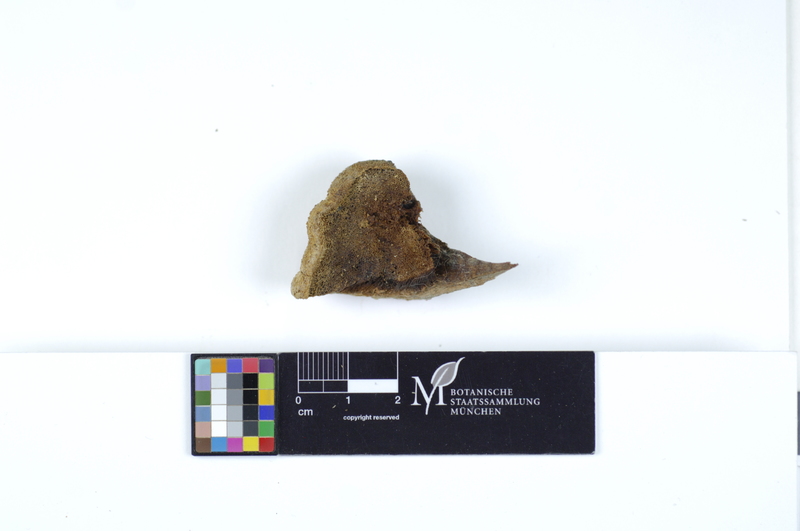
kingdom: Fungi
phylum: Basidiomycota
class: Agaricomycetes
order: Polyporales
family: Meruliaceae
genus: Pappia
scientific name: Pappia fissilis
